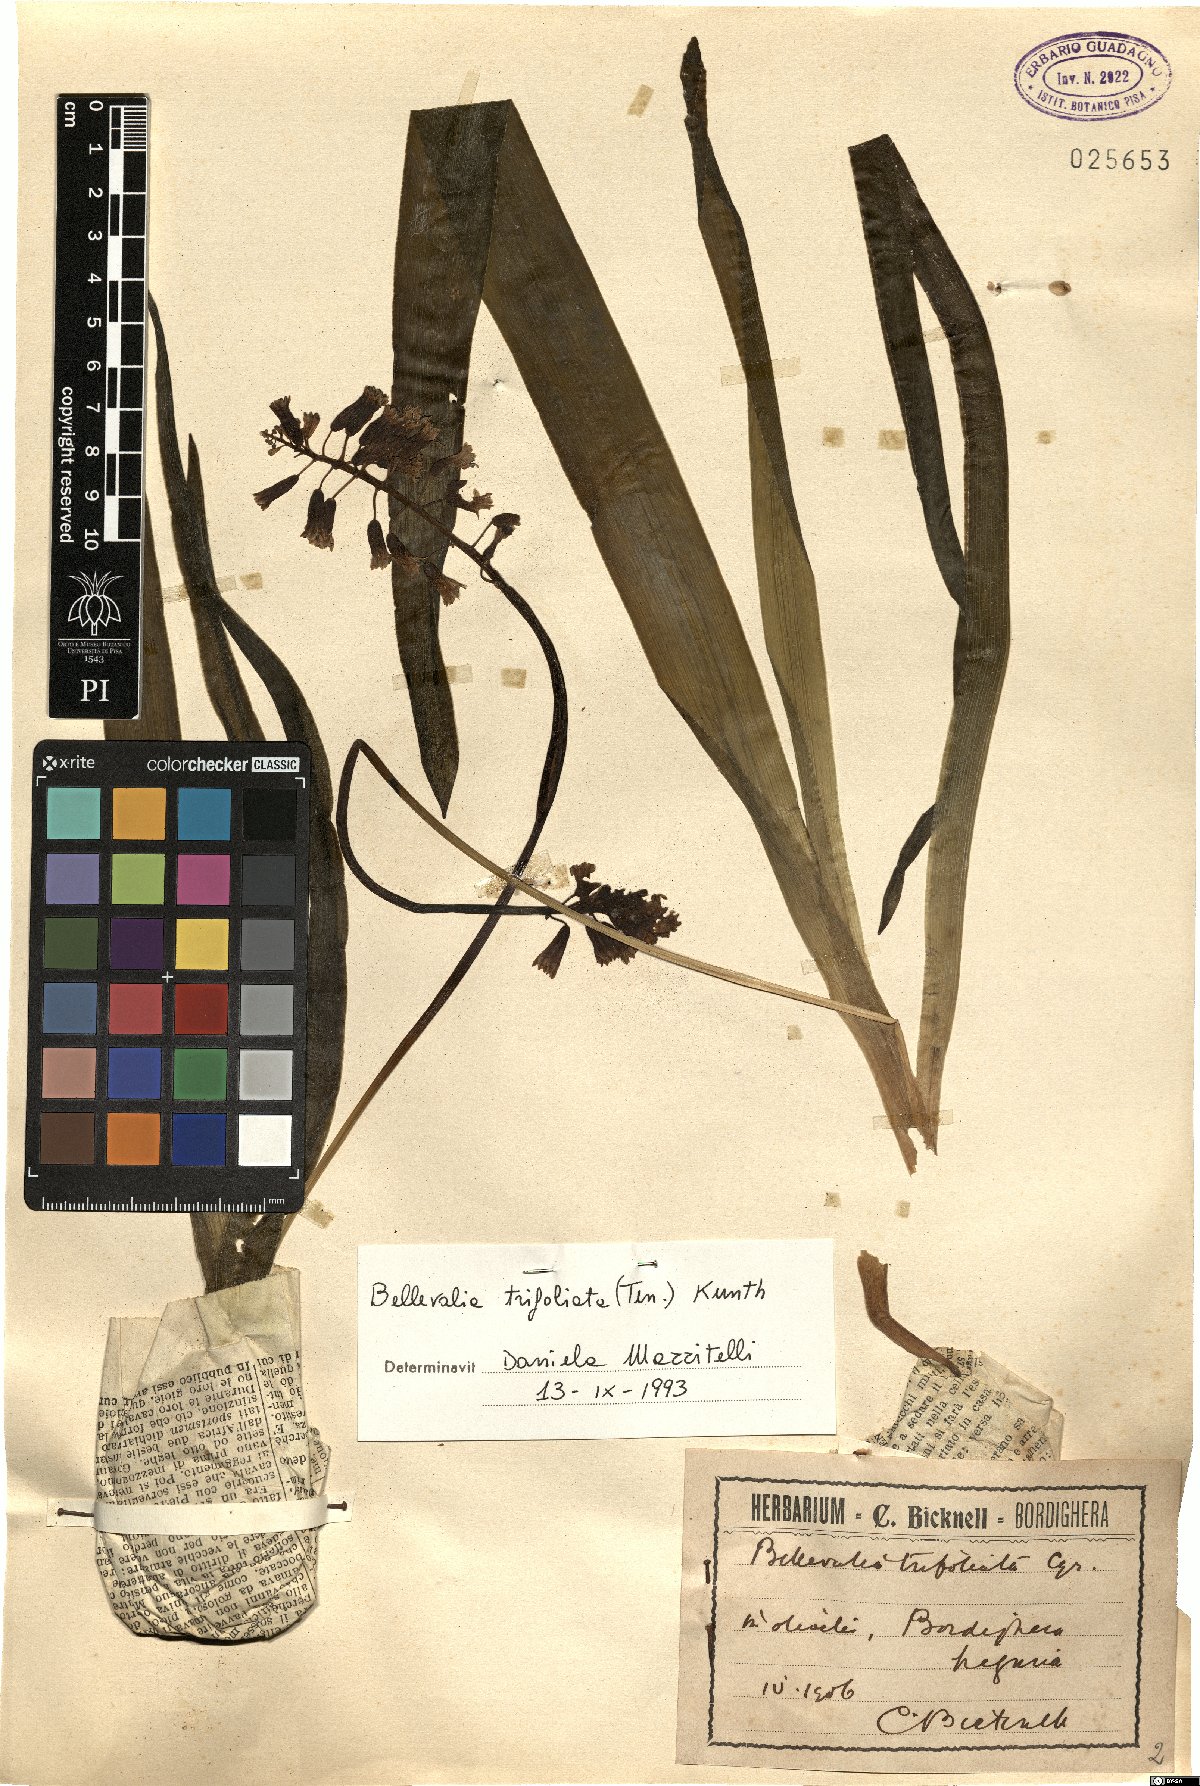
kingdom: Plantae
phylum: Tracheophyta
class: Liliopsida
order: Asparagales
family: Asparagaceae
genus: Bellevalia
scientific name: Bellevalia trifoliata
